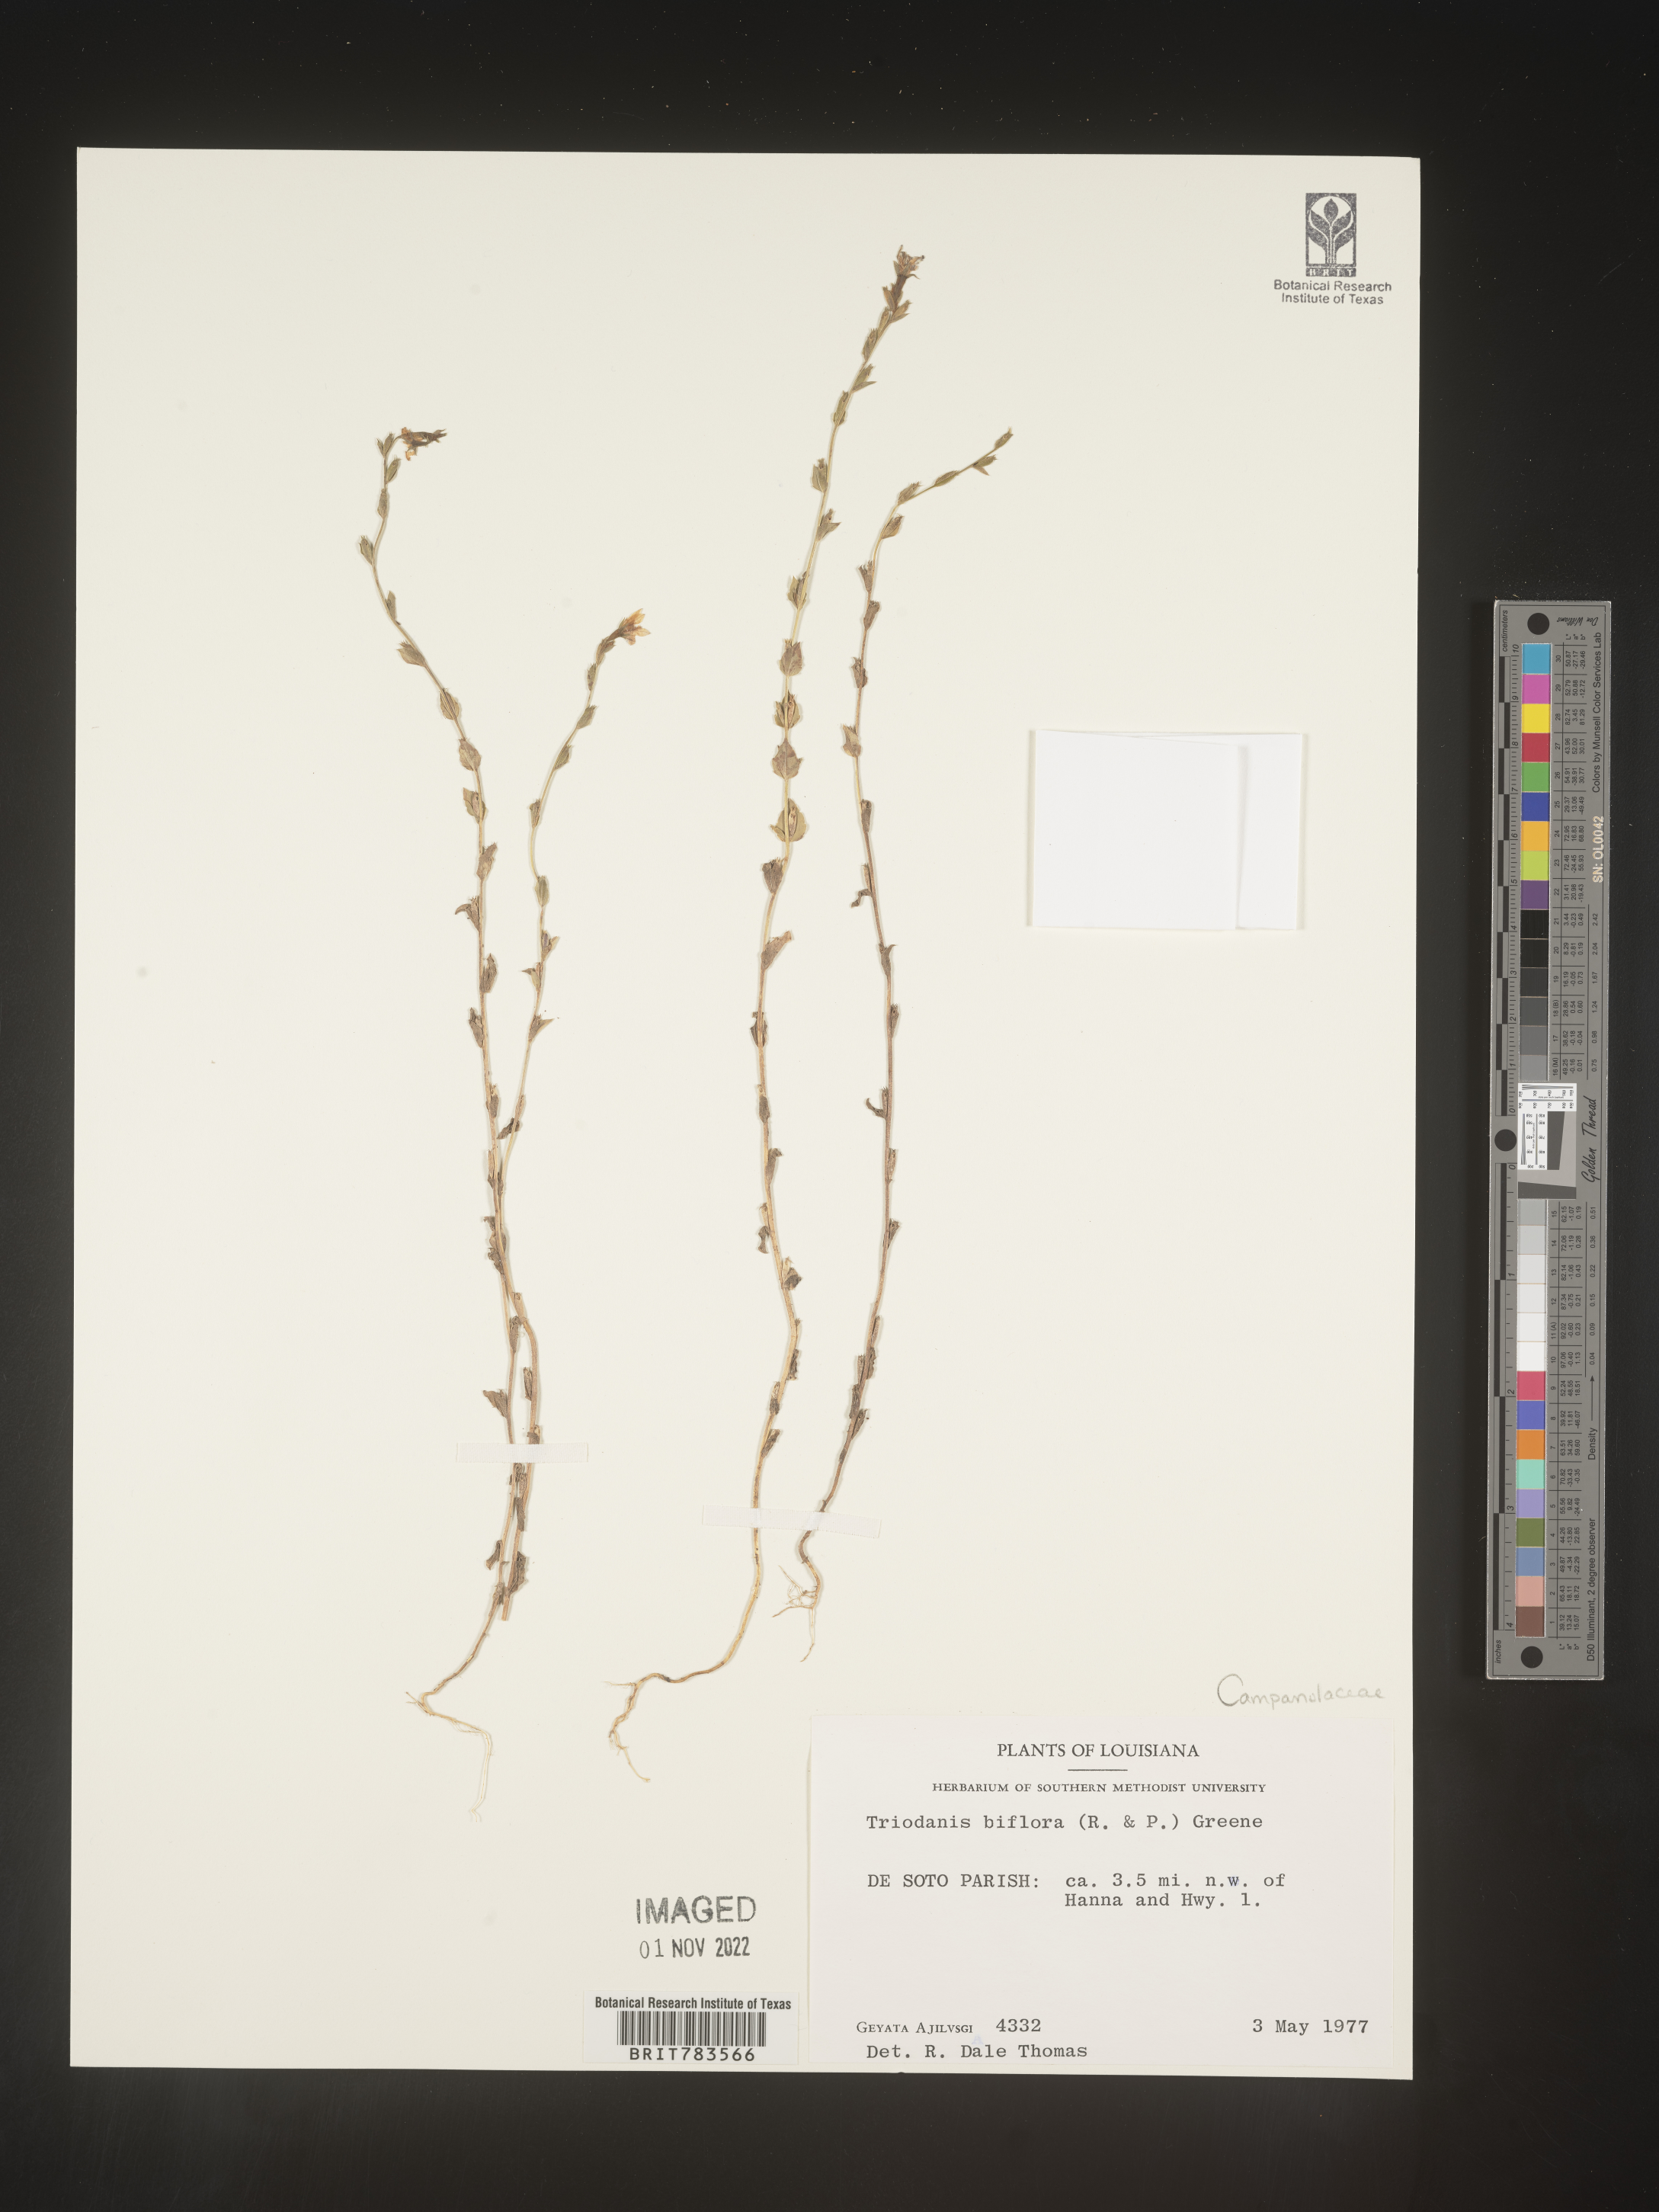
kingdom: Plantae
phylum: Tracheophyta
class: Magnoliopsida
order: Asterales
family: Campanulaceae
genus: Triodanis
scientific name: Triodanis perfoliata
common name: Clasping venus' looking-glass
